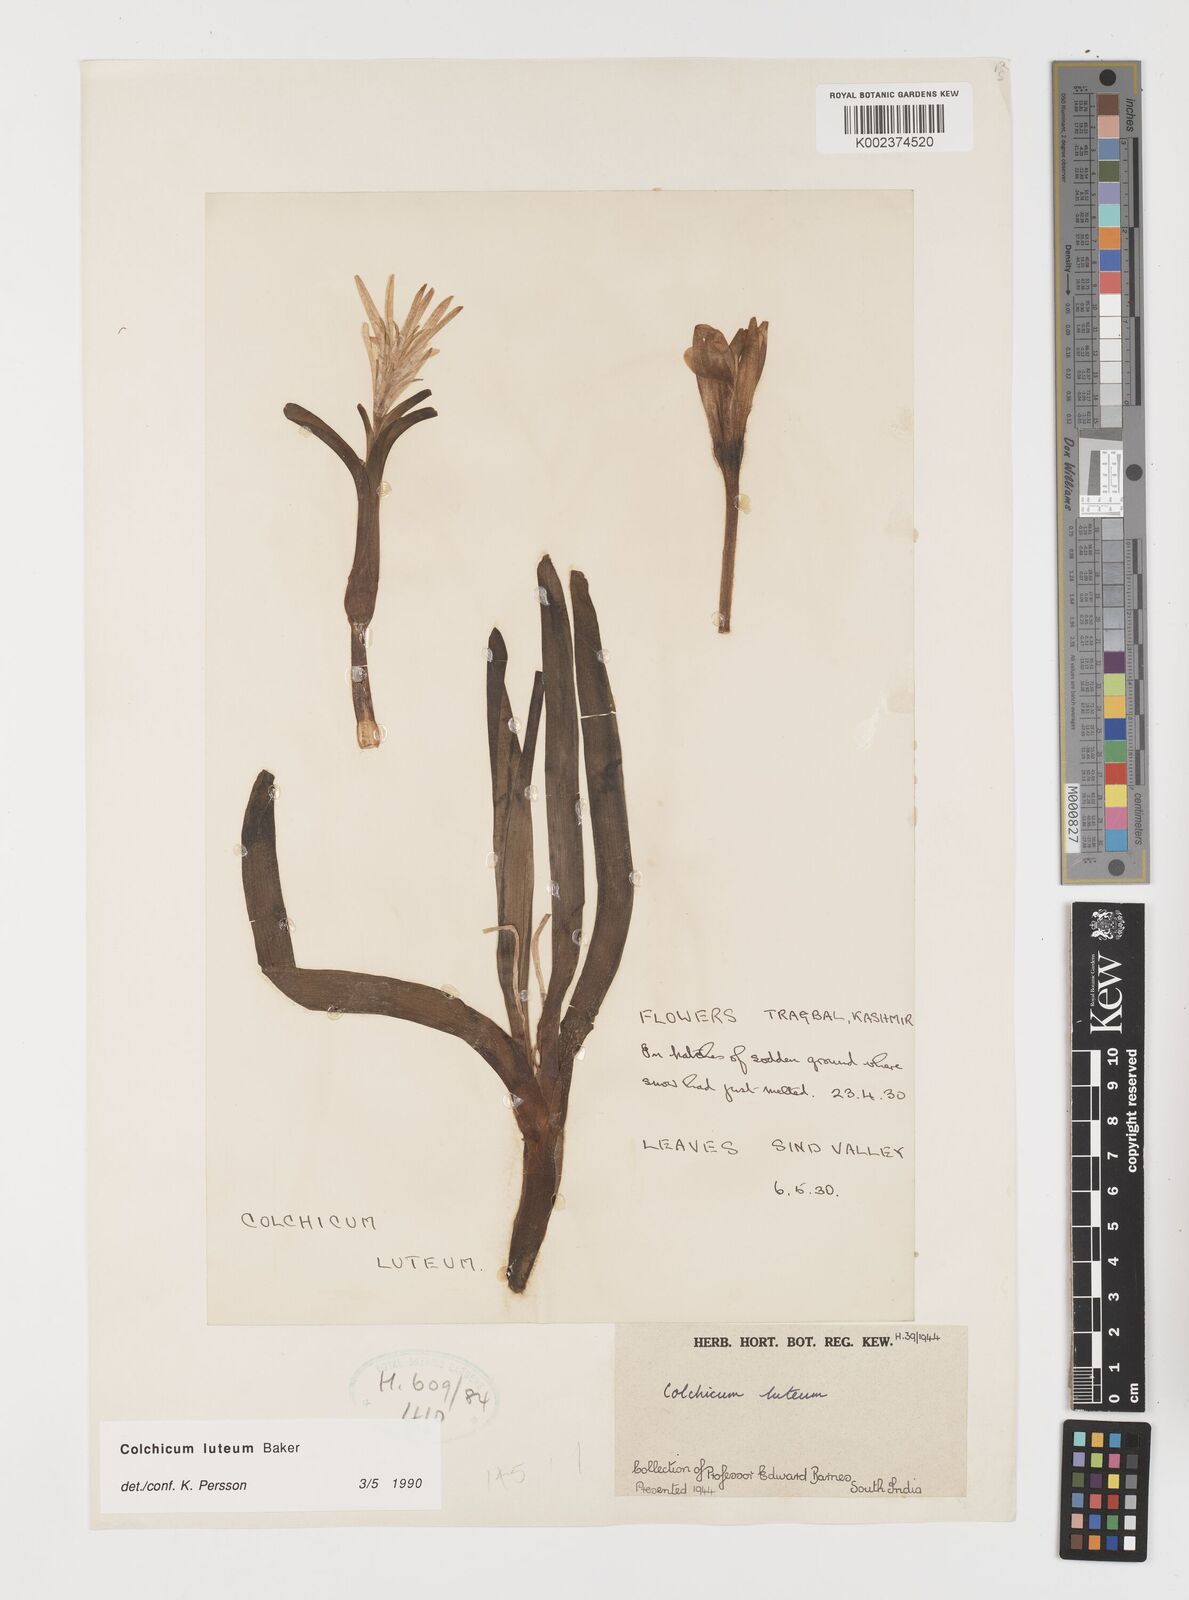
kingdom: Plantae
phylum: Tracheophyta
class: Liliopsida
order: Liliales
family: Colchicaceae
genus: Colchicum
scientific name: Colchicum luteum
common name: Indian colchicum
